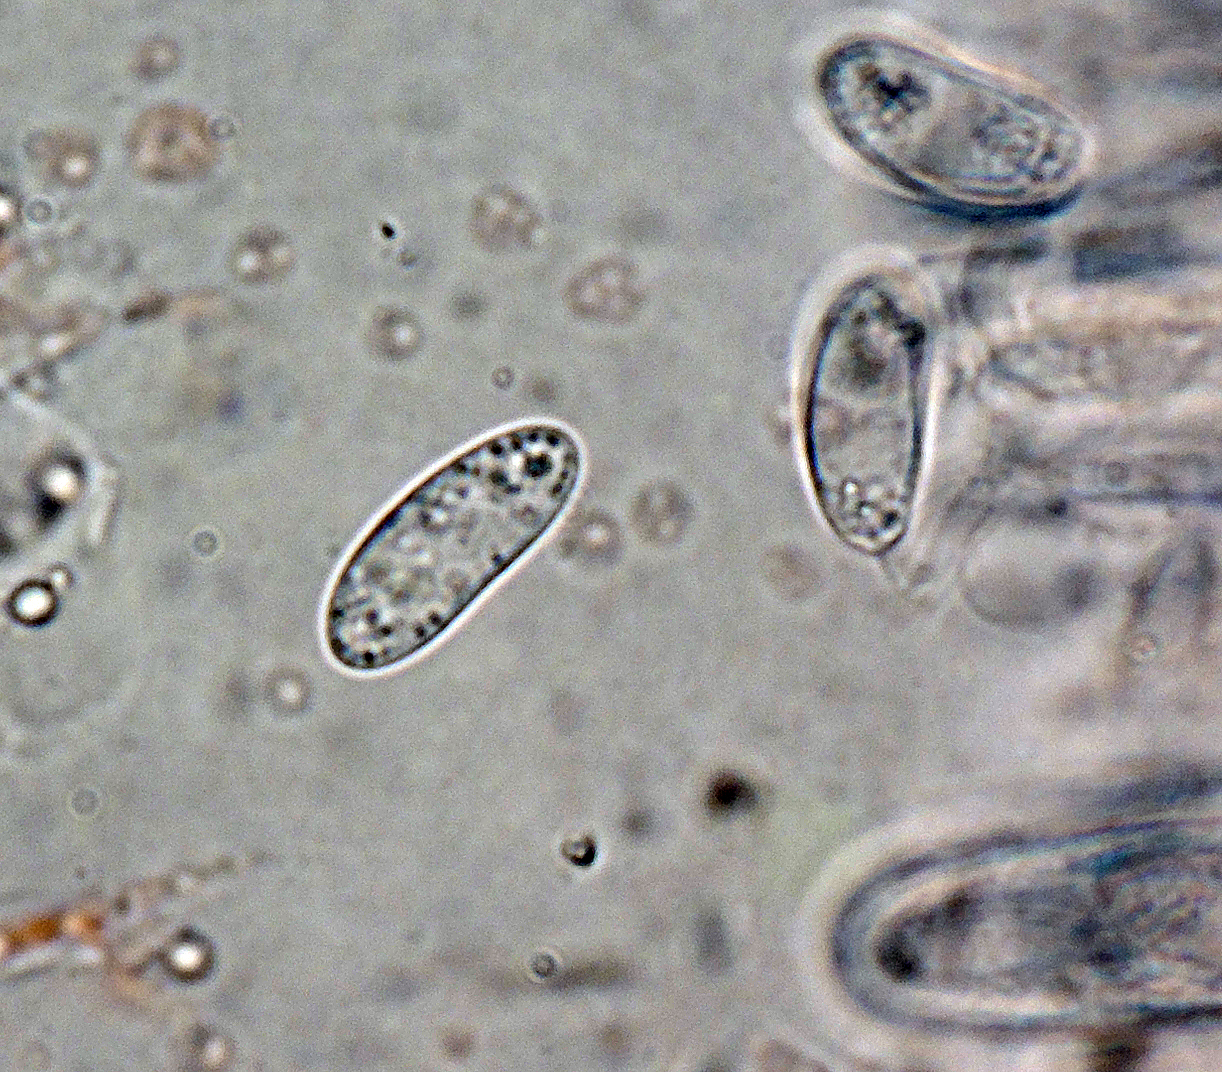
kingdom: Fungi
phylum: Ascomycota
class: Leotiomycetes
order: Helotiales
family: Sclerotiniaceae
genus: Clarireedia
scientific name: Clarireedia
